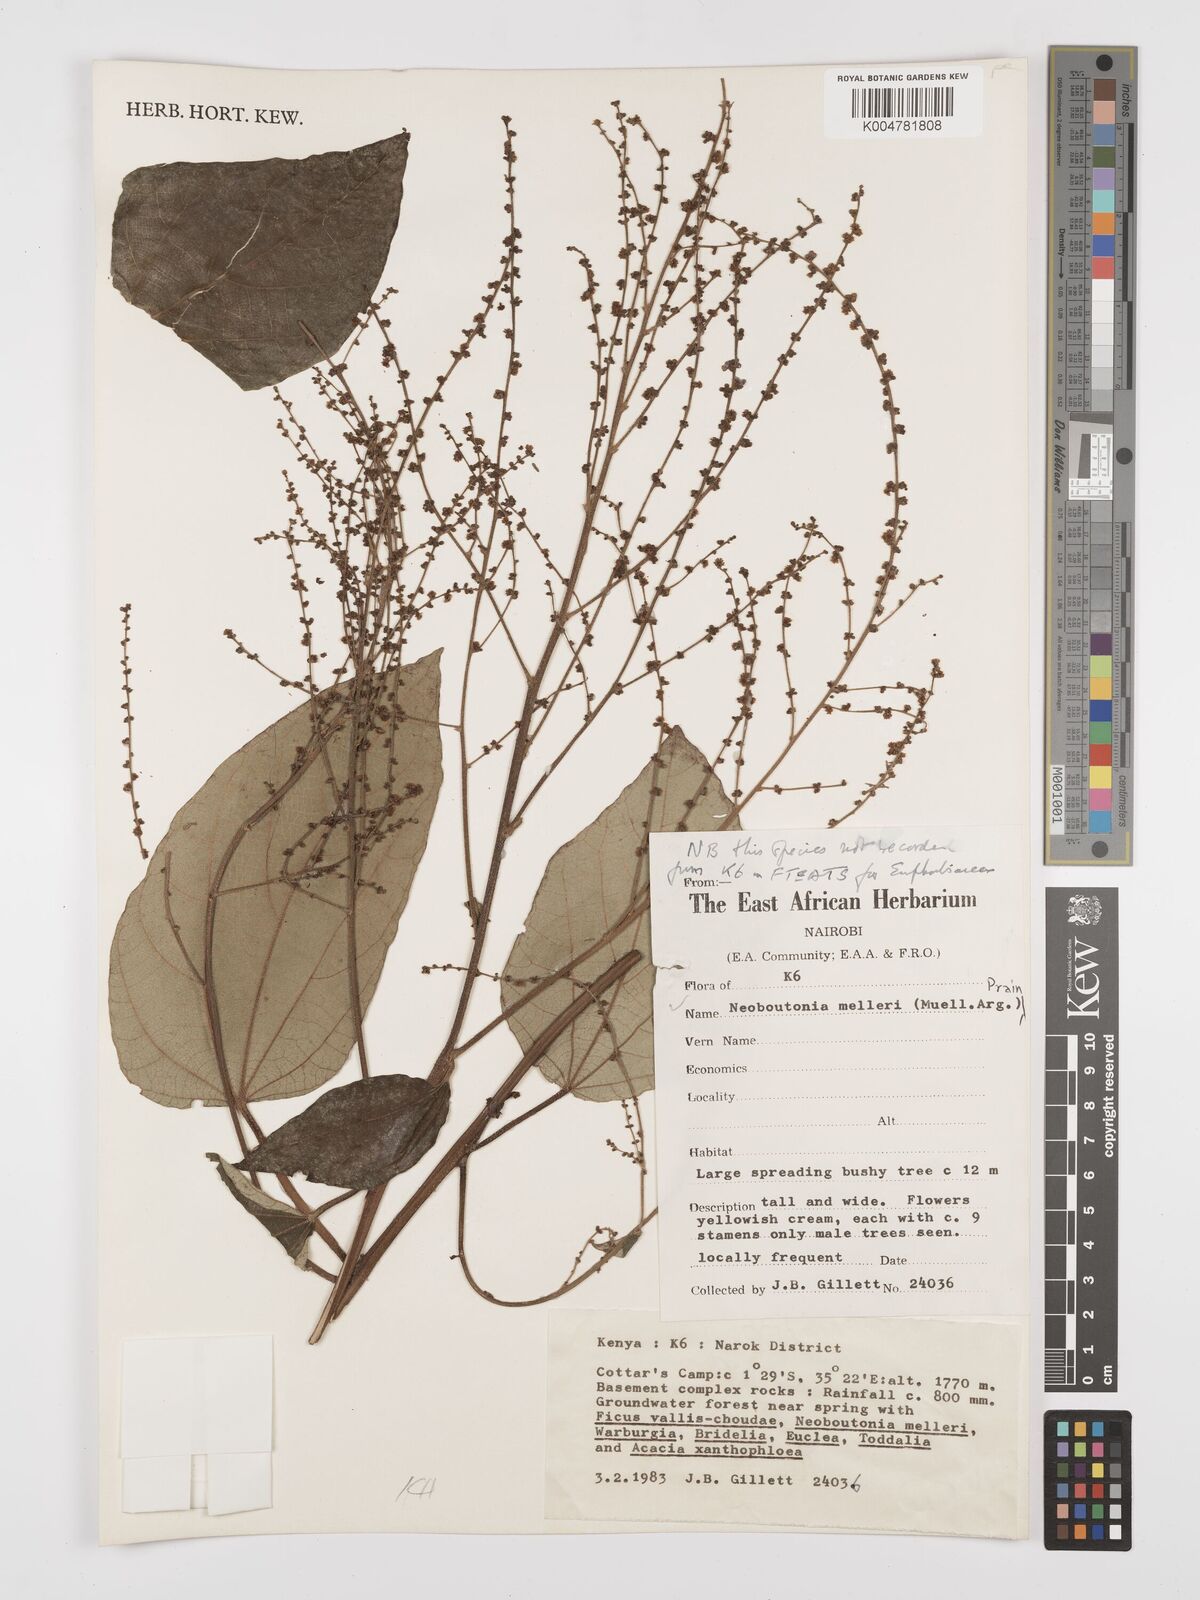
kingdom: Plantae
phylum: Tracheophyta
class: Magnoliopsida
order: Malpighiales
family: Euphorbiaceae
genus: Neoboutonia
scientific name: Neoboutonia melleri
